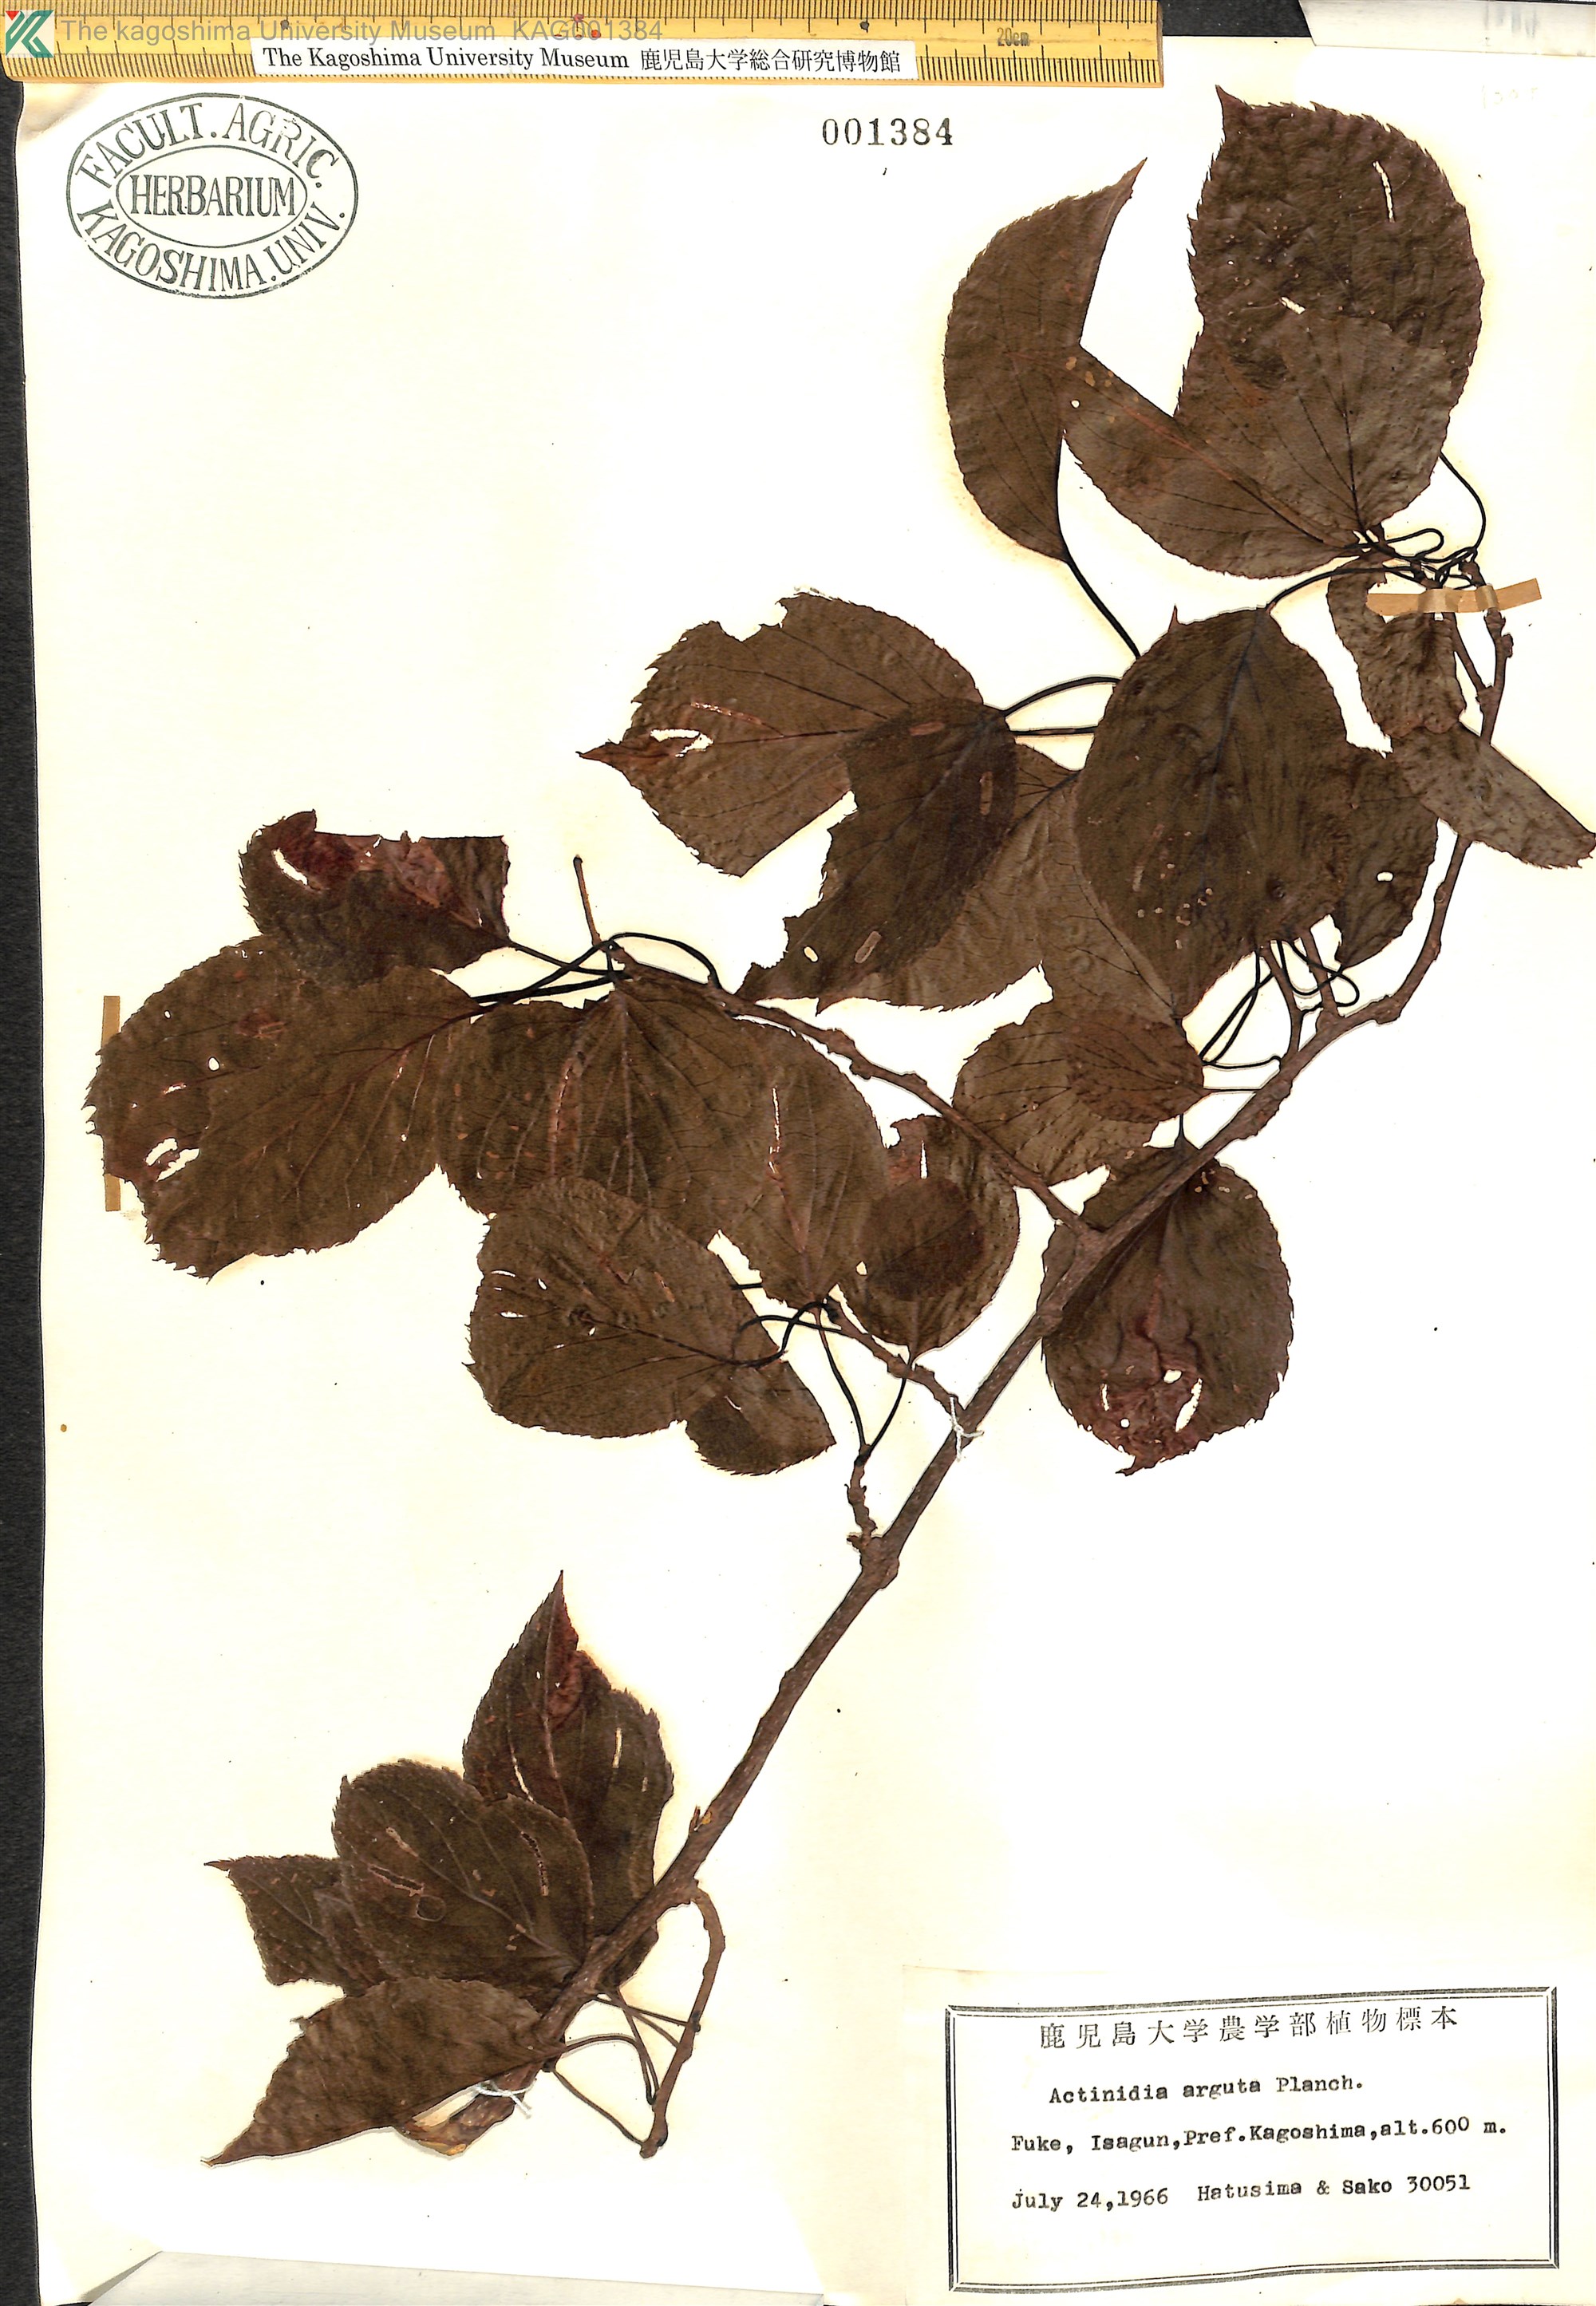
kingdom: Plantae
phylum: Tracheophyta
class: Magnoliopsida
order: Ericales
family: Actinidiaceae
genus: Actinidia
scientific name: Actinidia arguta
